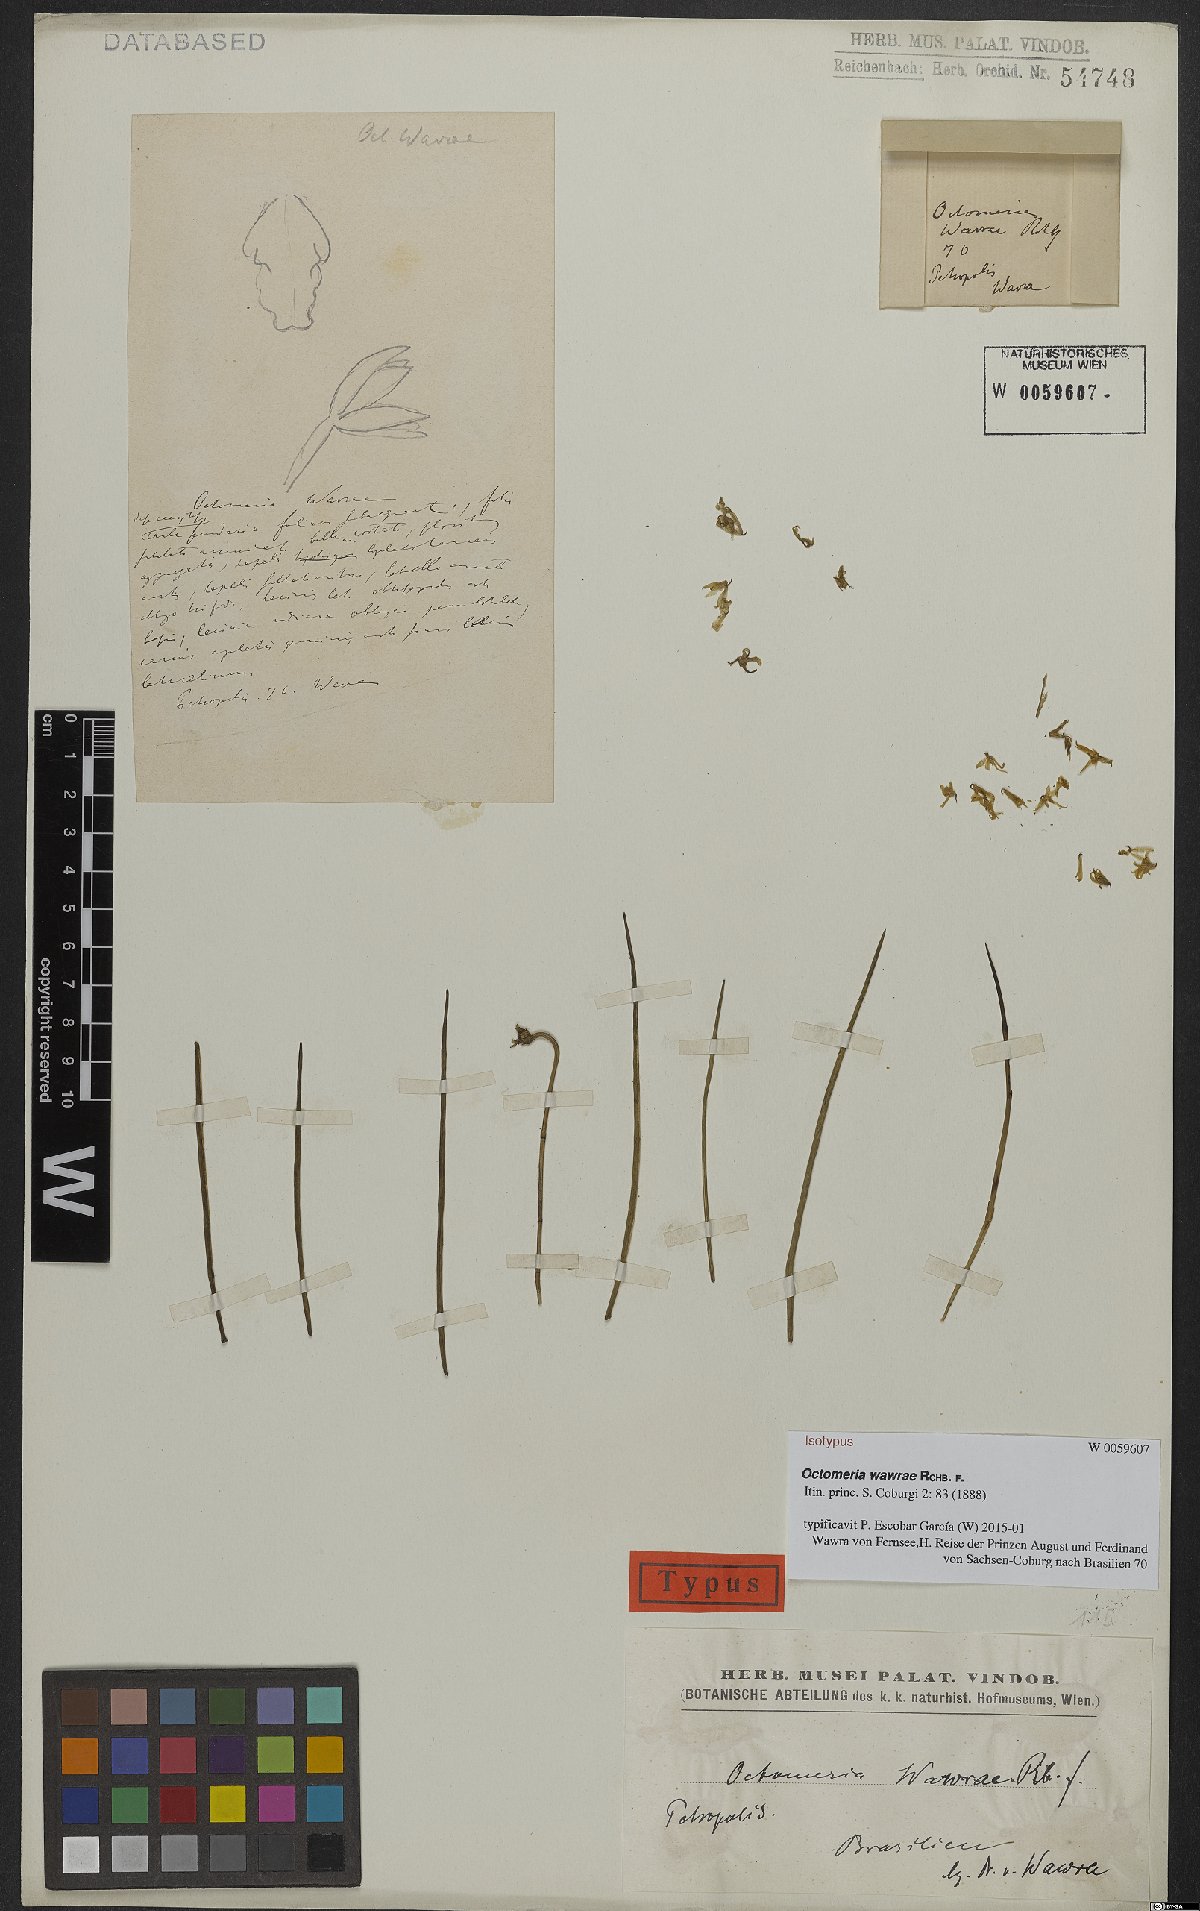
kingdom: Plantae
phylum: Tracheophyta
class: Liliopsida
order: Asparagales
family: Orchidaceae
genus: Octomeria
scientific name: Octomeria wawrae
